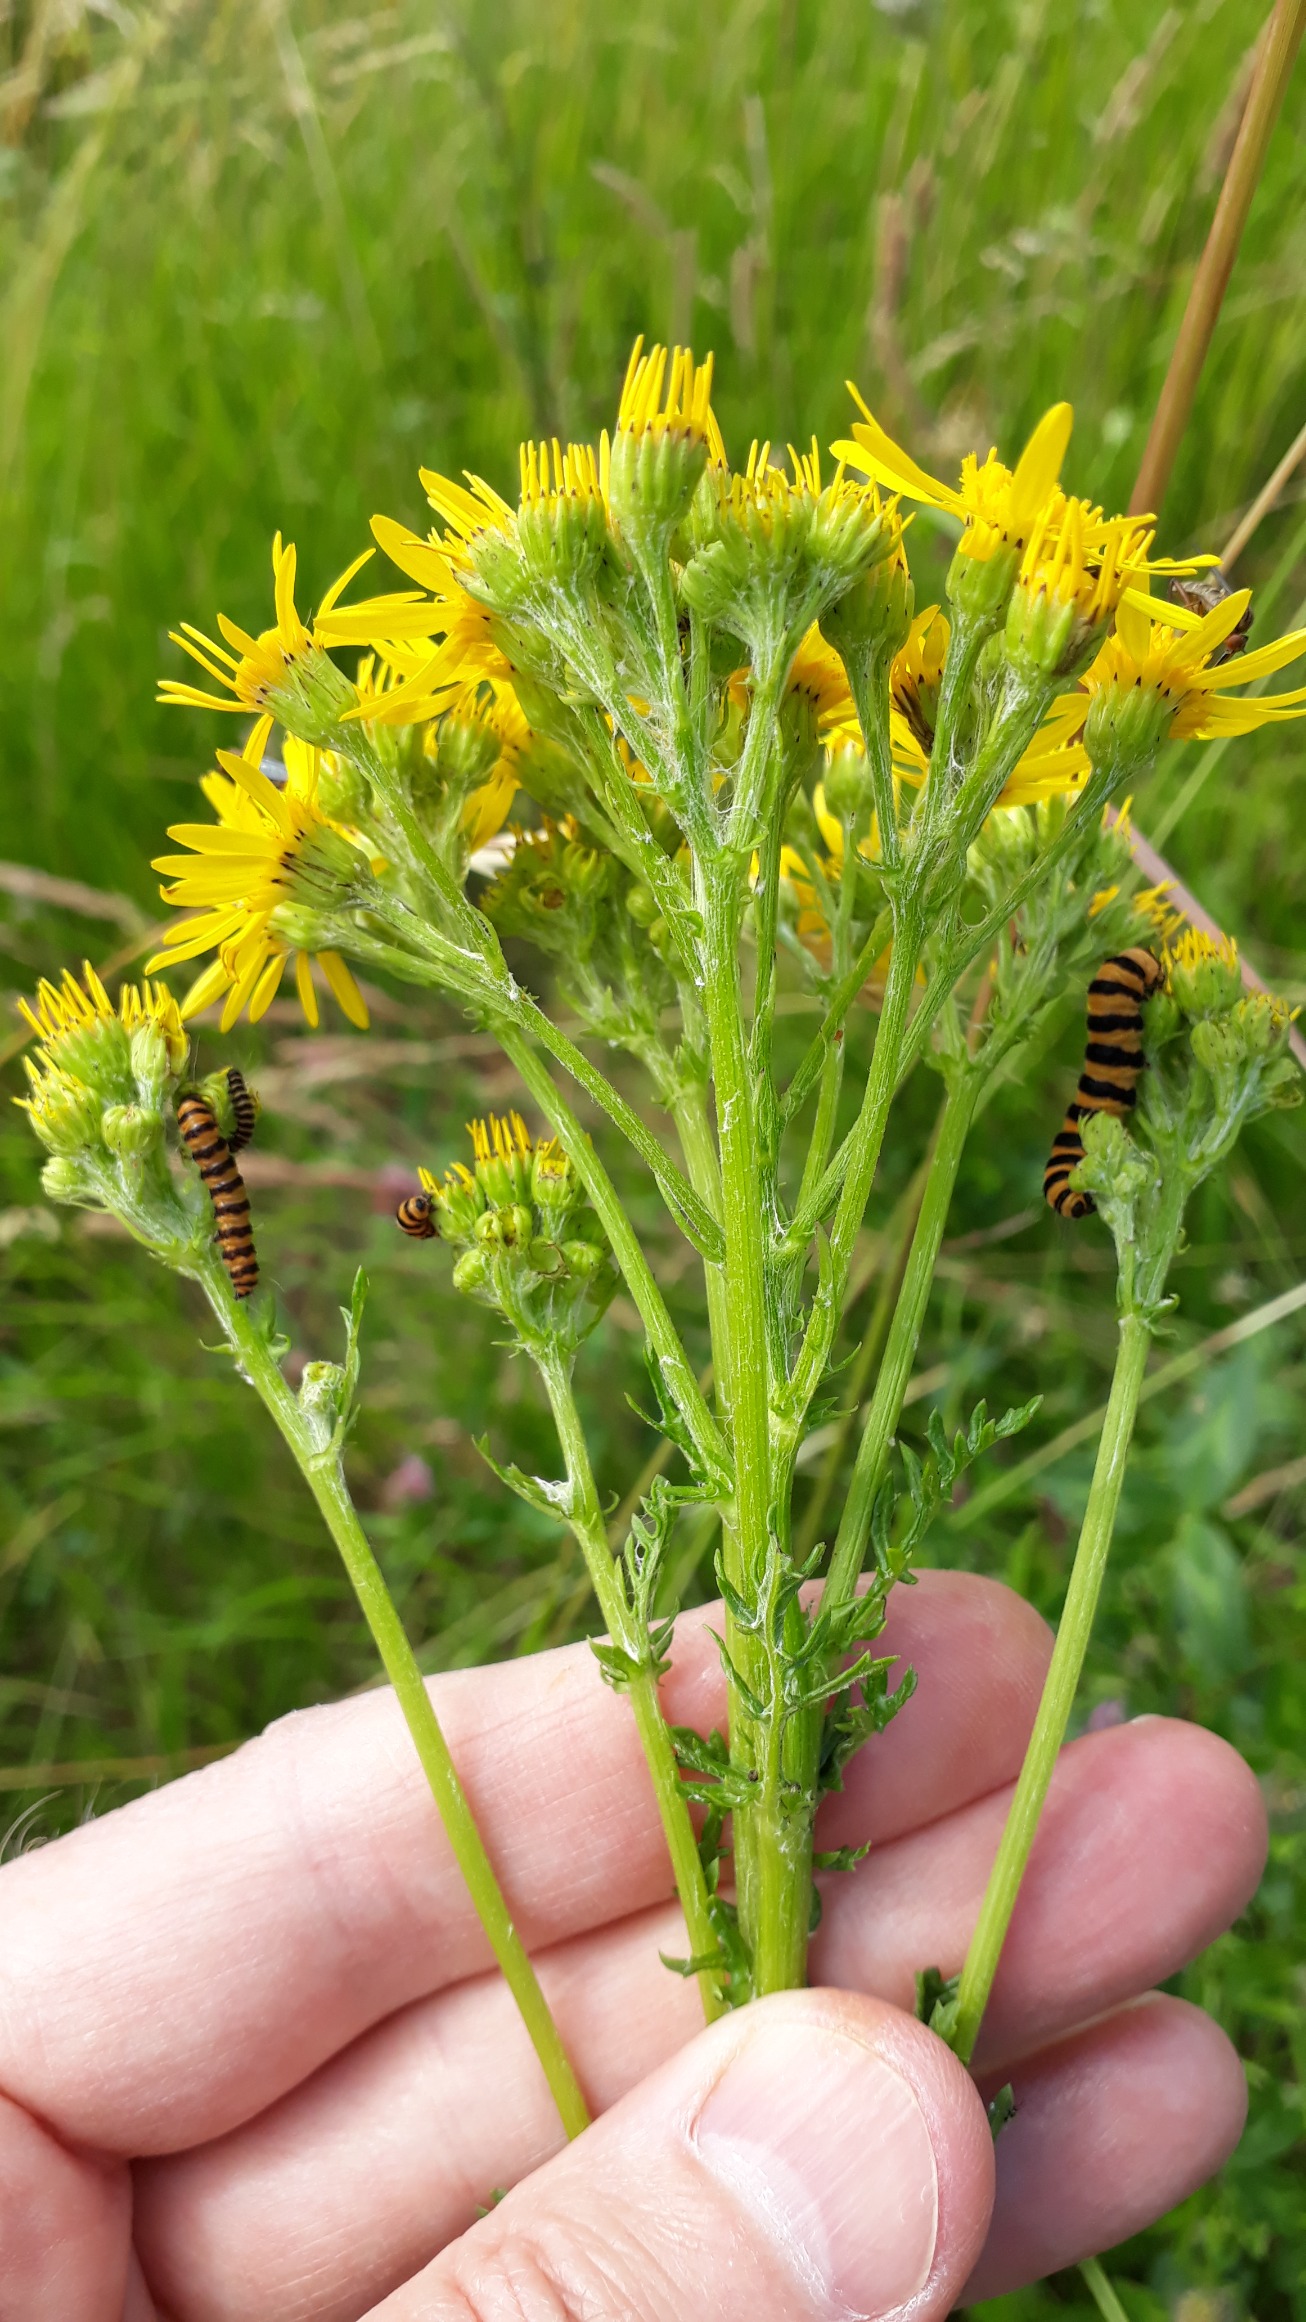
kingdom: Animalia
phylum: Arthropoda
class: Insecta
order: Lepidoptera
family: Erebidae
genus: Tyria
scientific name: Tyria jacobaeae
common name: Blodplet
